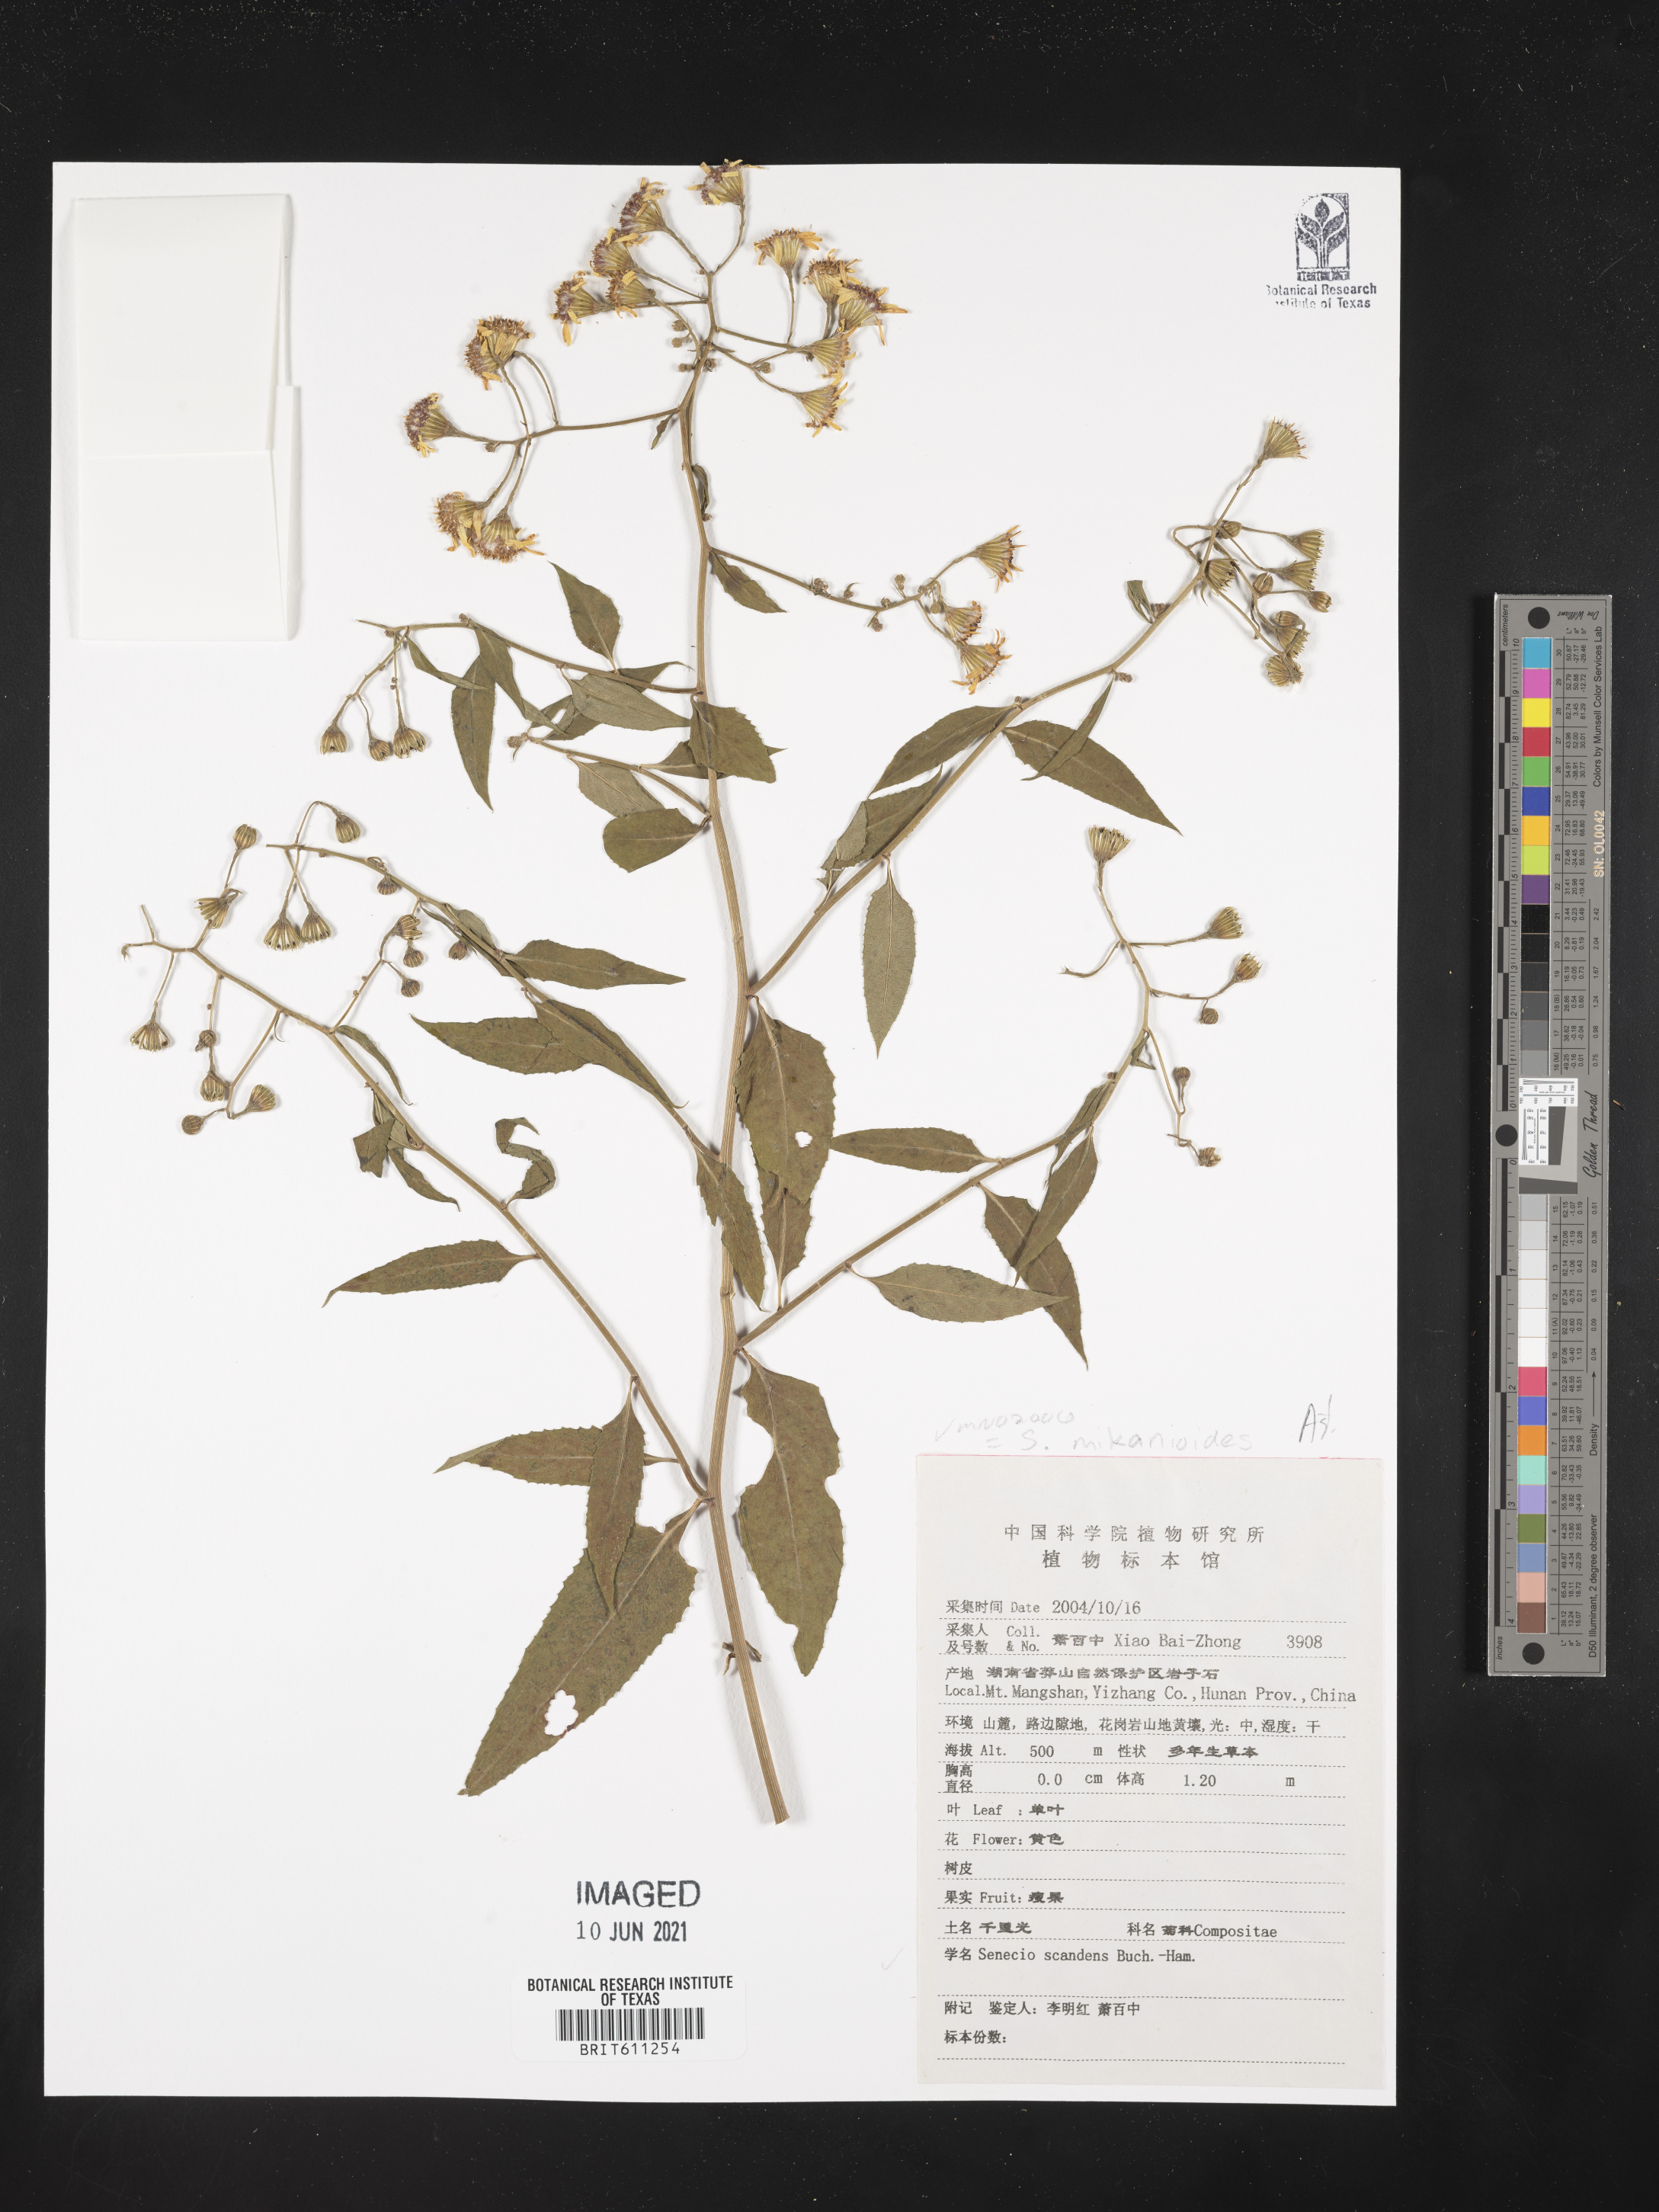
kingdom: Plantae
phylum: Tracheophyta
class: Magnoliopsida
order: Asterales
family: Asteraceae
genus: Senecio
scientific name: Senecio scandens
